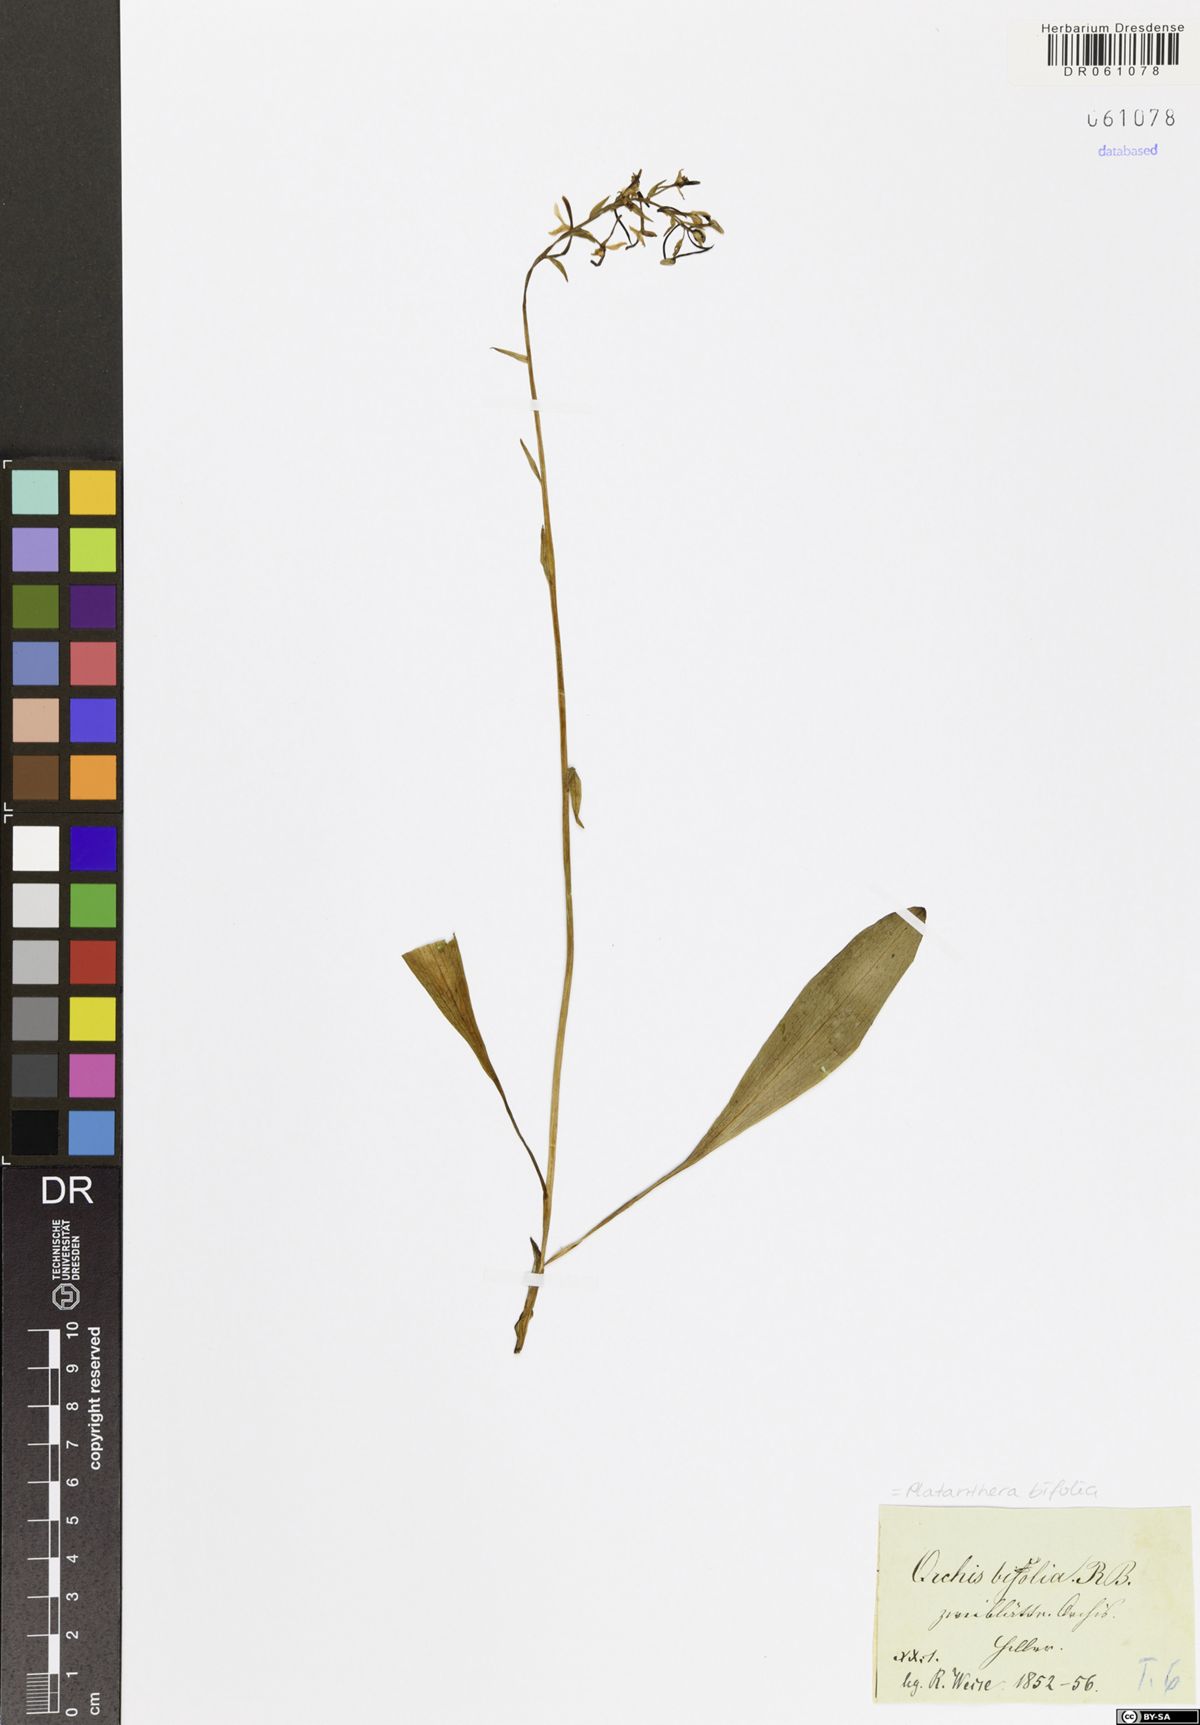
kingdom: Plantae
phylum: Tracheophyta
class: Liliopsida
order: Asparagales
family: Orchidaceae
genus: Platanthera
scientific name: Platanthera bifolia
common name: Lesser butterfly-orchid
